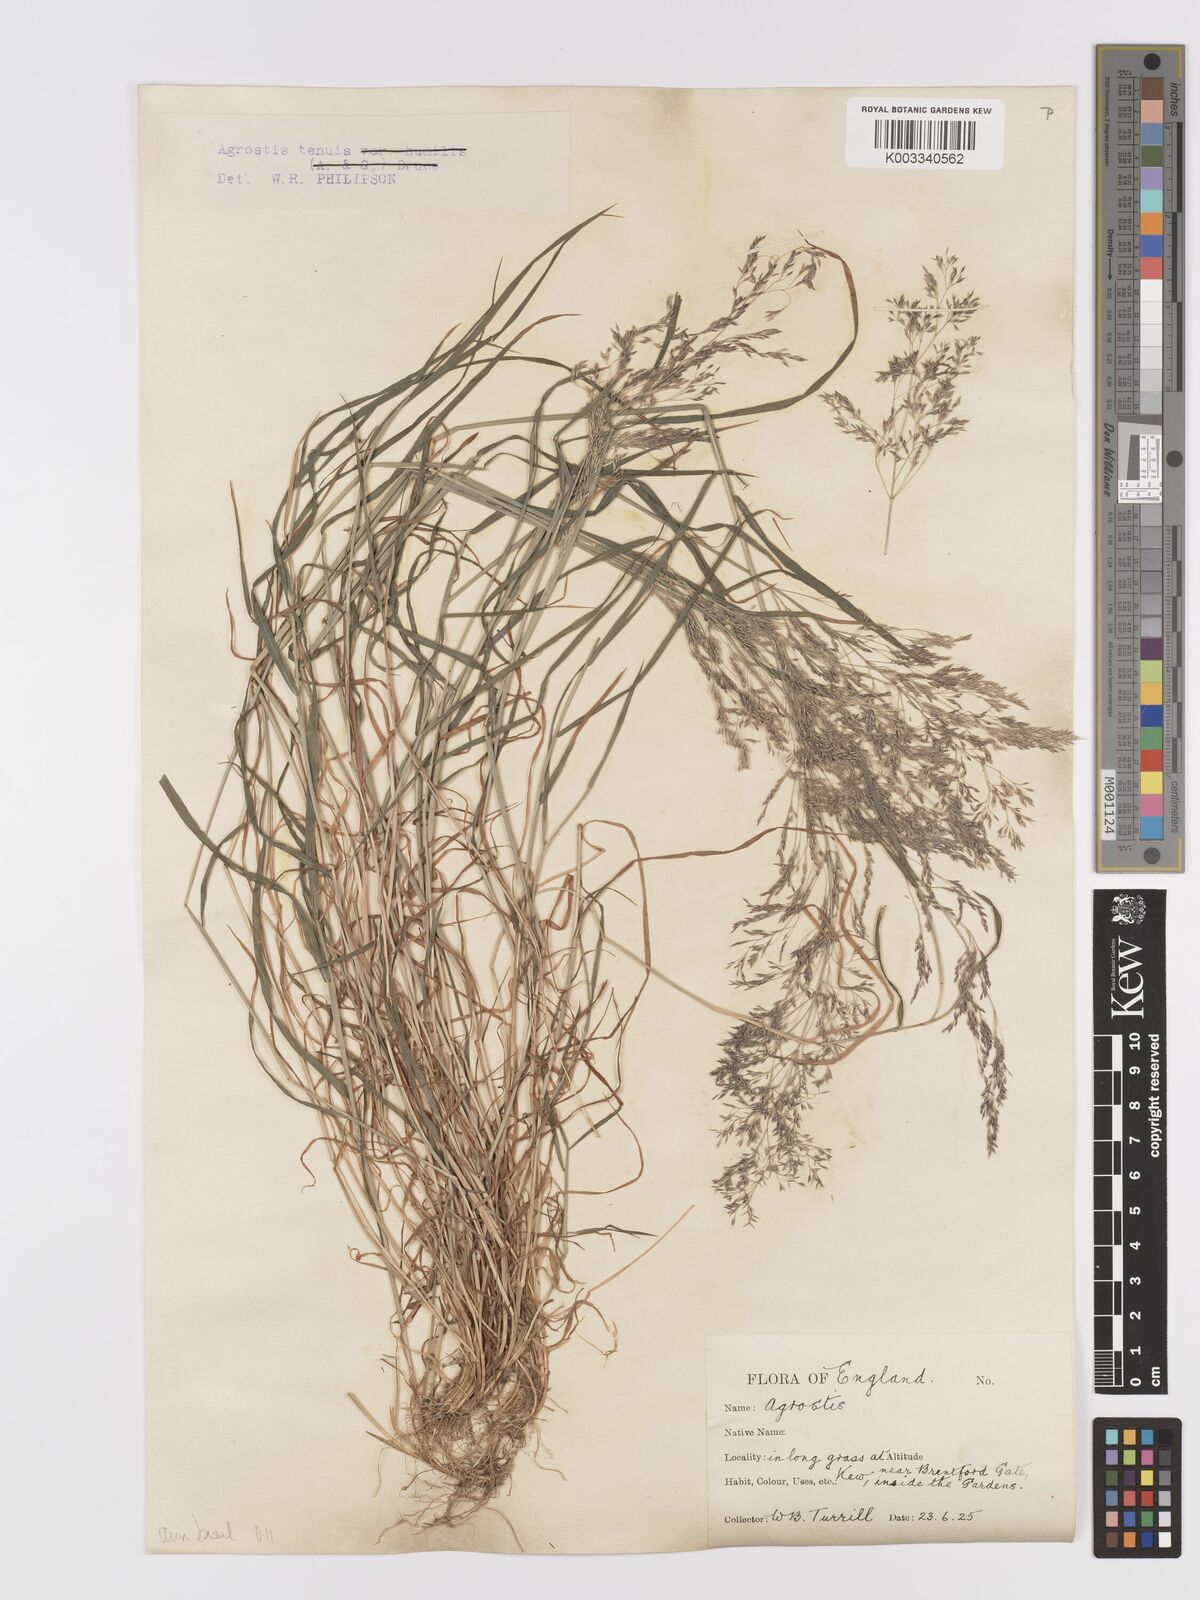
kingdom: Plantae
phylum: Tracheophyta
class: Liliopsida
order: Poales
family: Poaceae
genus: Agrostis
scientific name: Agrostis capillaris
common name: Colonial bentgrass
